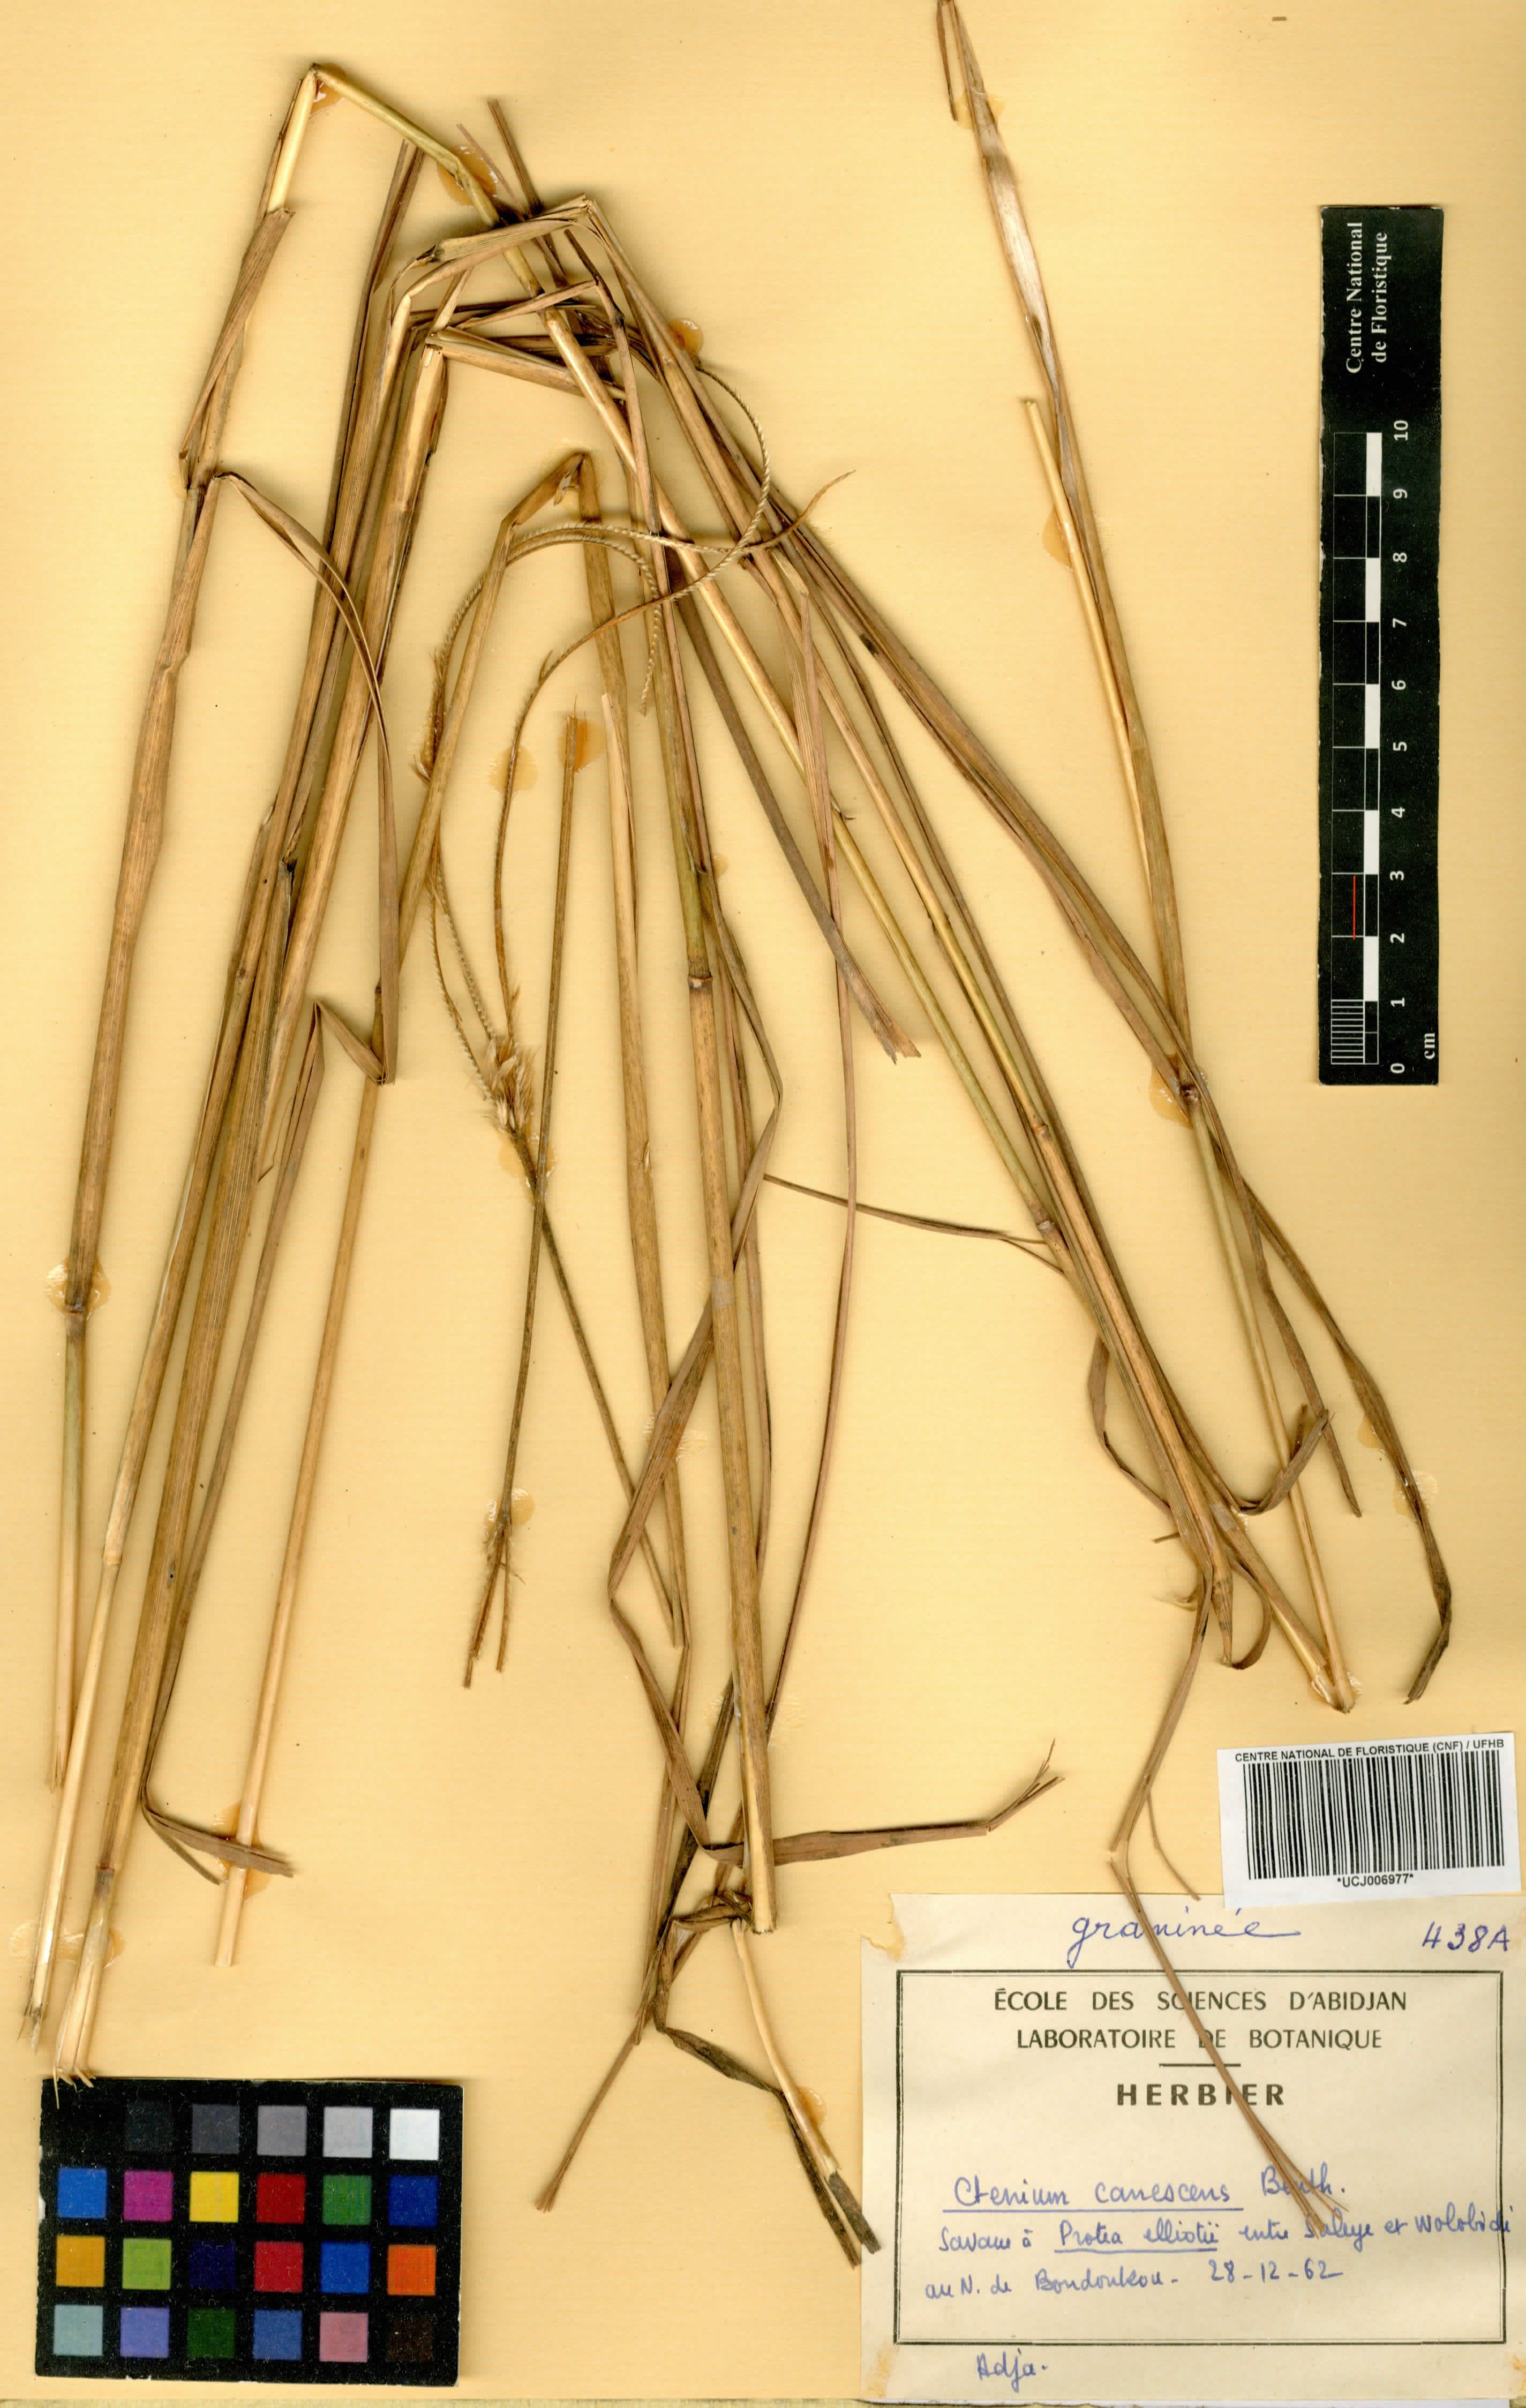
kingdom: Plantae
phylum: Tracheophyta
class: Liliopsida
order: Poales
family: Poaceae
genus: Ctenium
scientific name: Ctenium canescens
